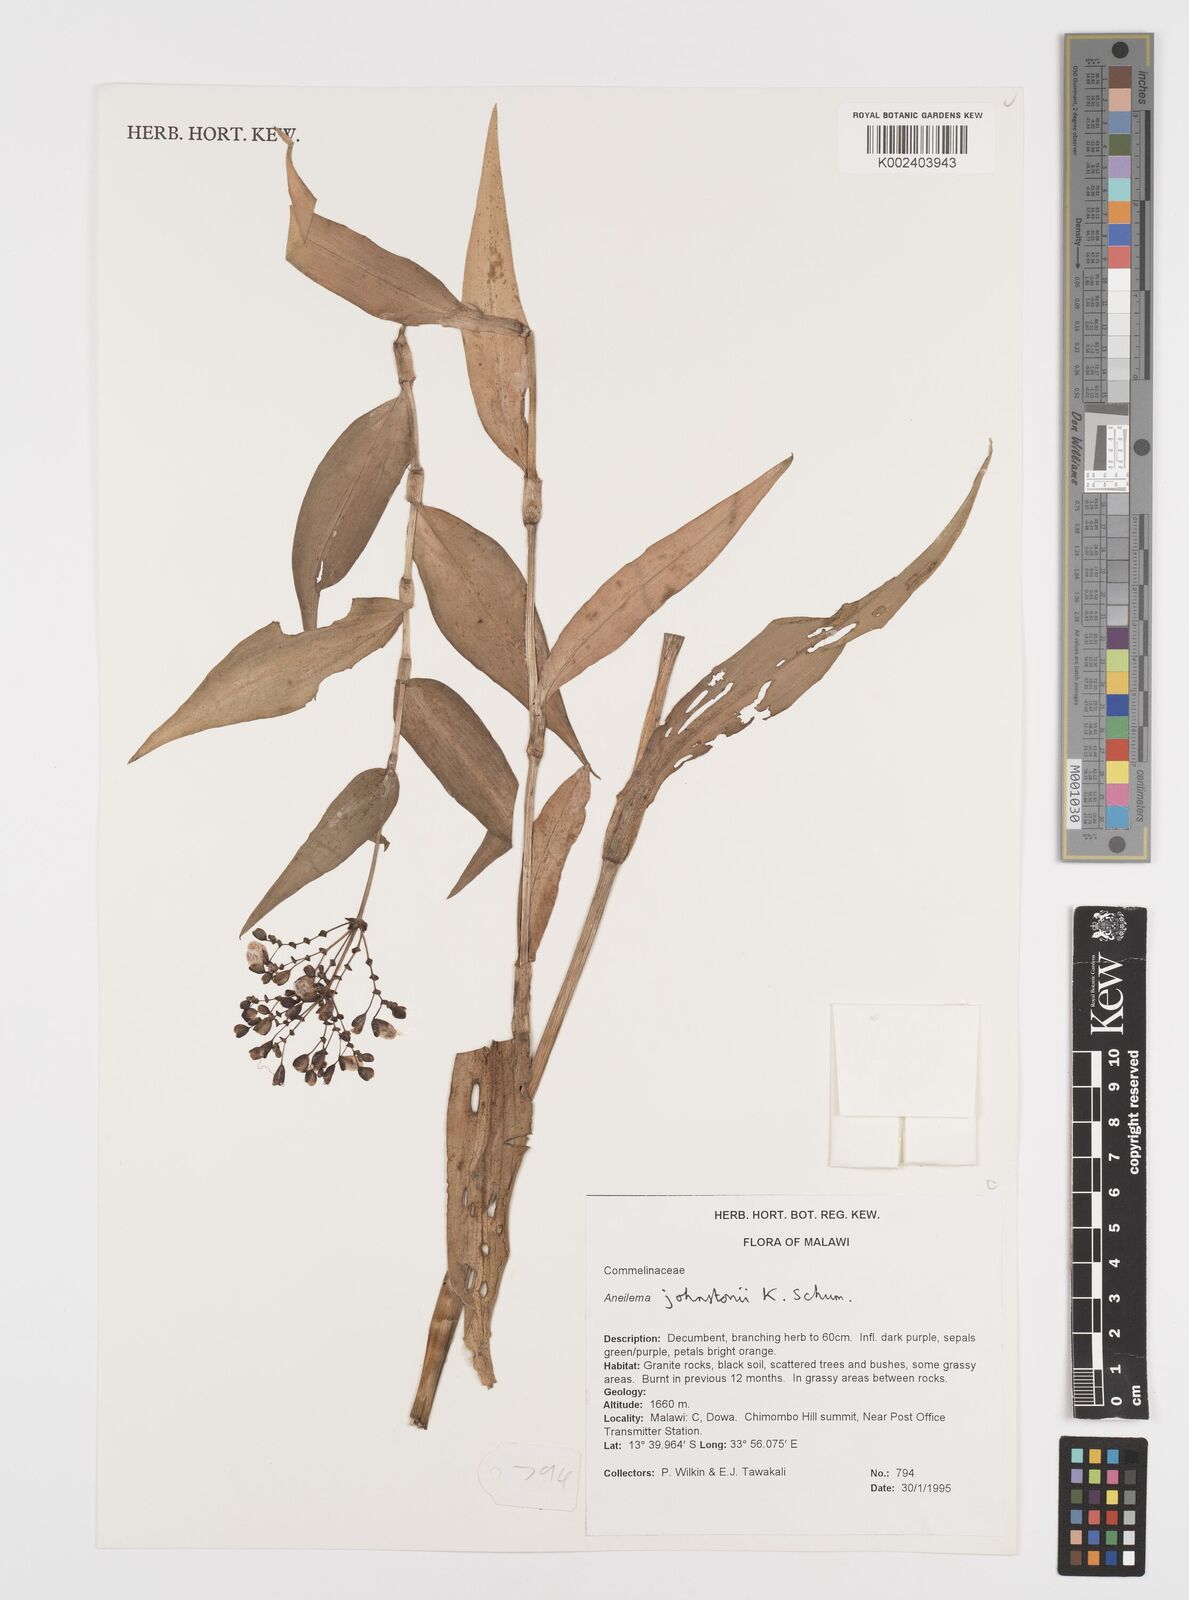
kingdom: Plantae
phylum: Tracheophyta
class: Liliopsida
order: Commelinales
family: Commelinaceae
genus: Aneilema
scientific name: Aneilema johnstonii
